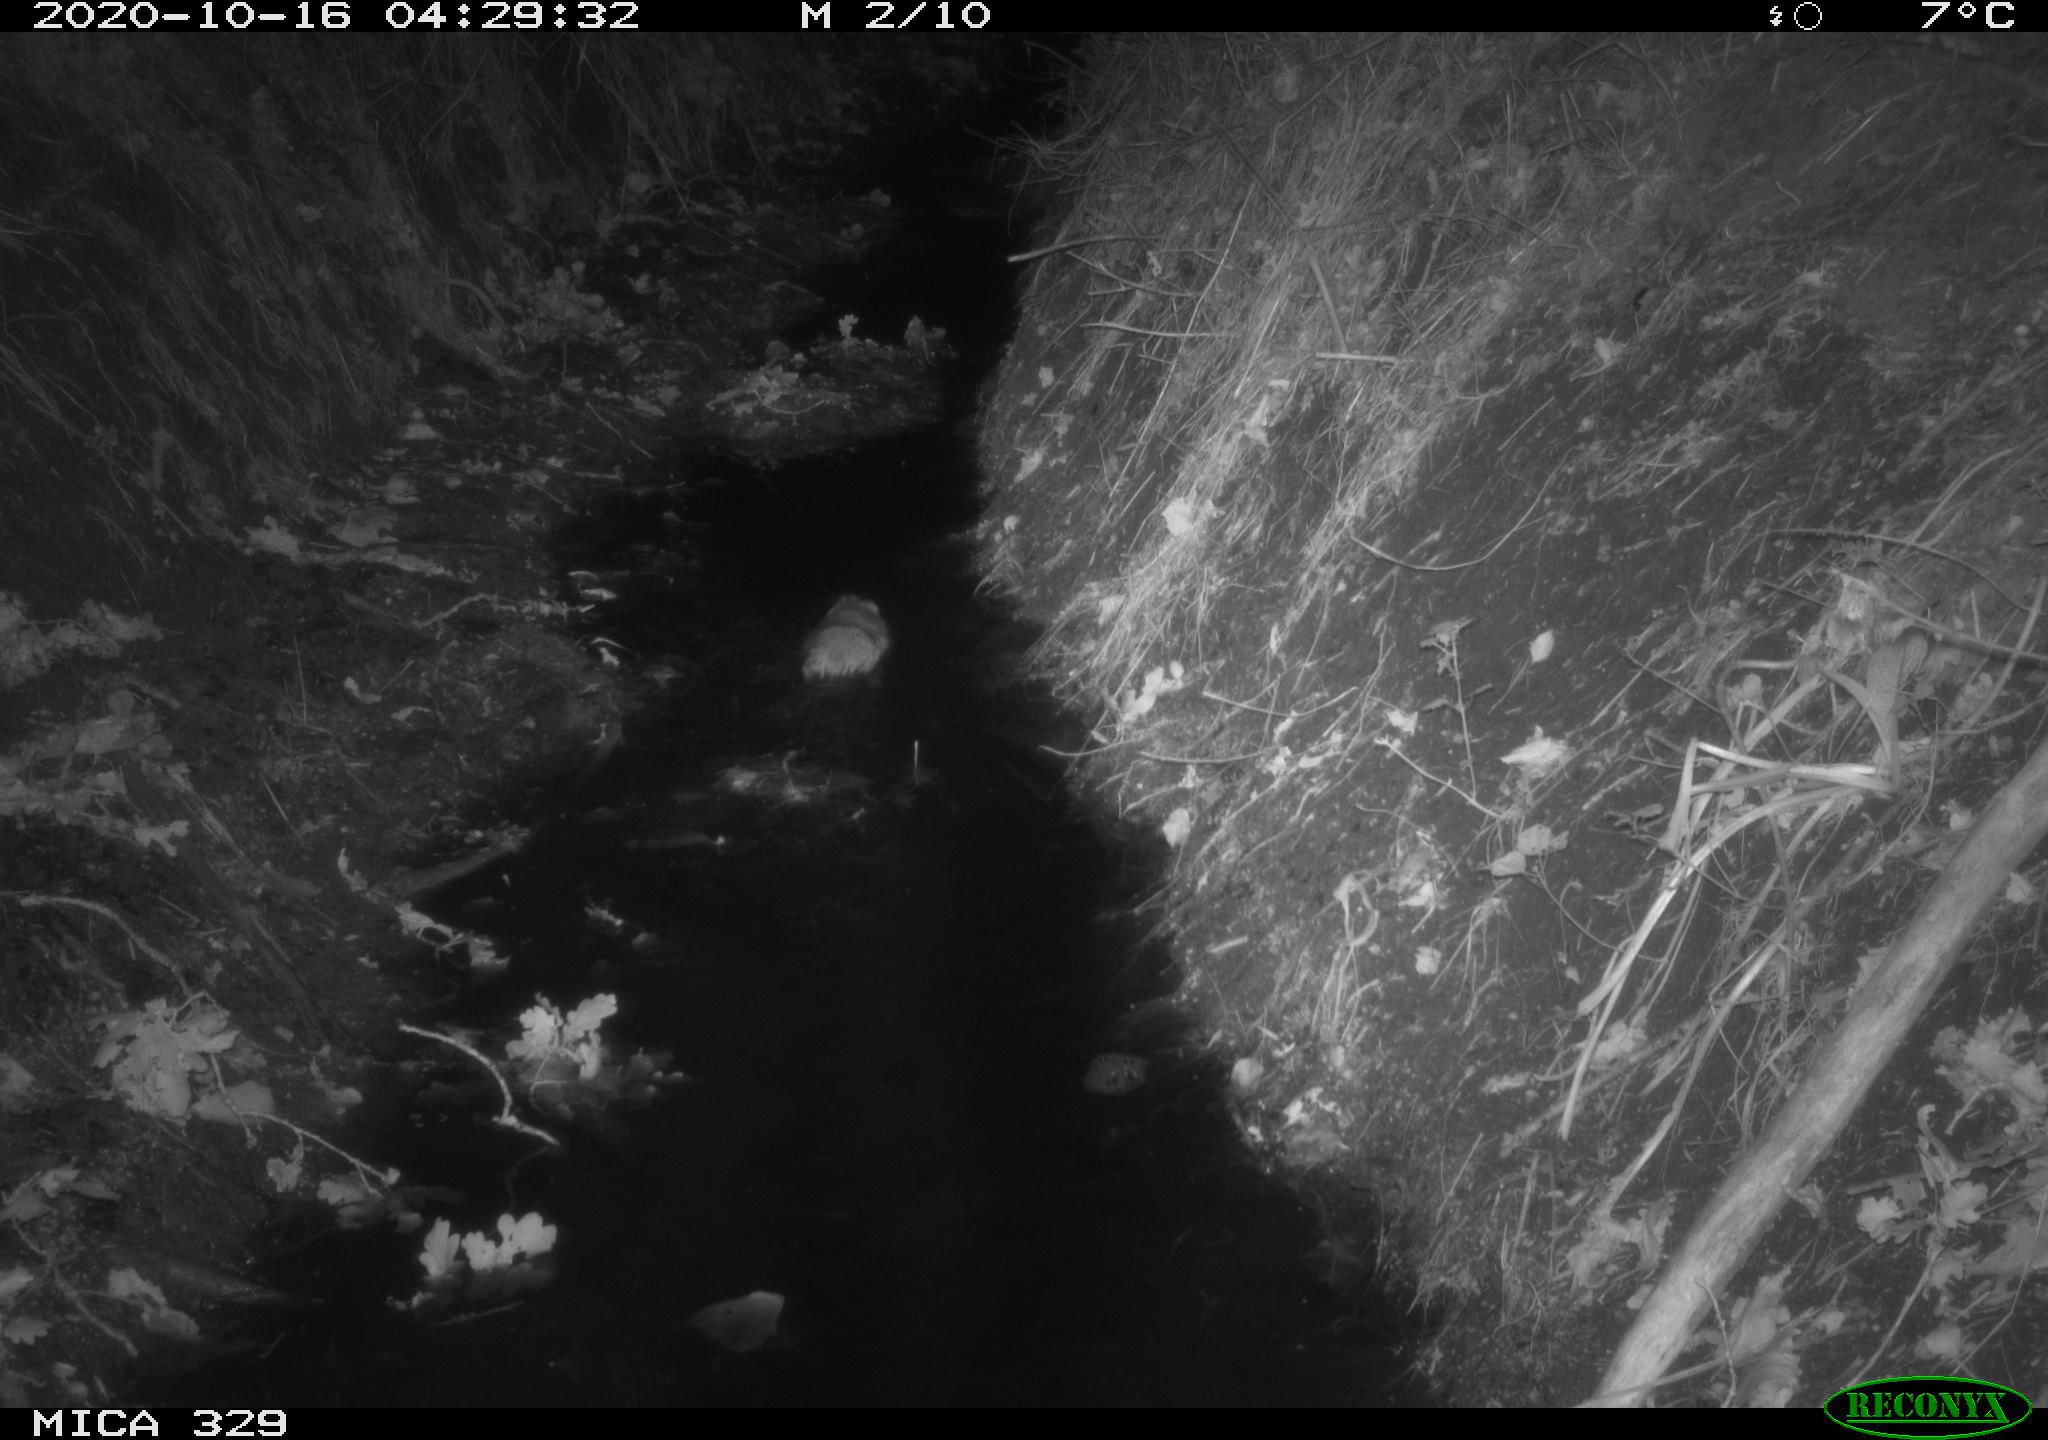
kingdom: Animalia
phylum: Chordata
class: Mammalia
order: Rodentia
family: Cricetidae
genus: Ondatra
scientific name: Ondatra zibethicus
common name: Muskrat
